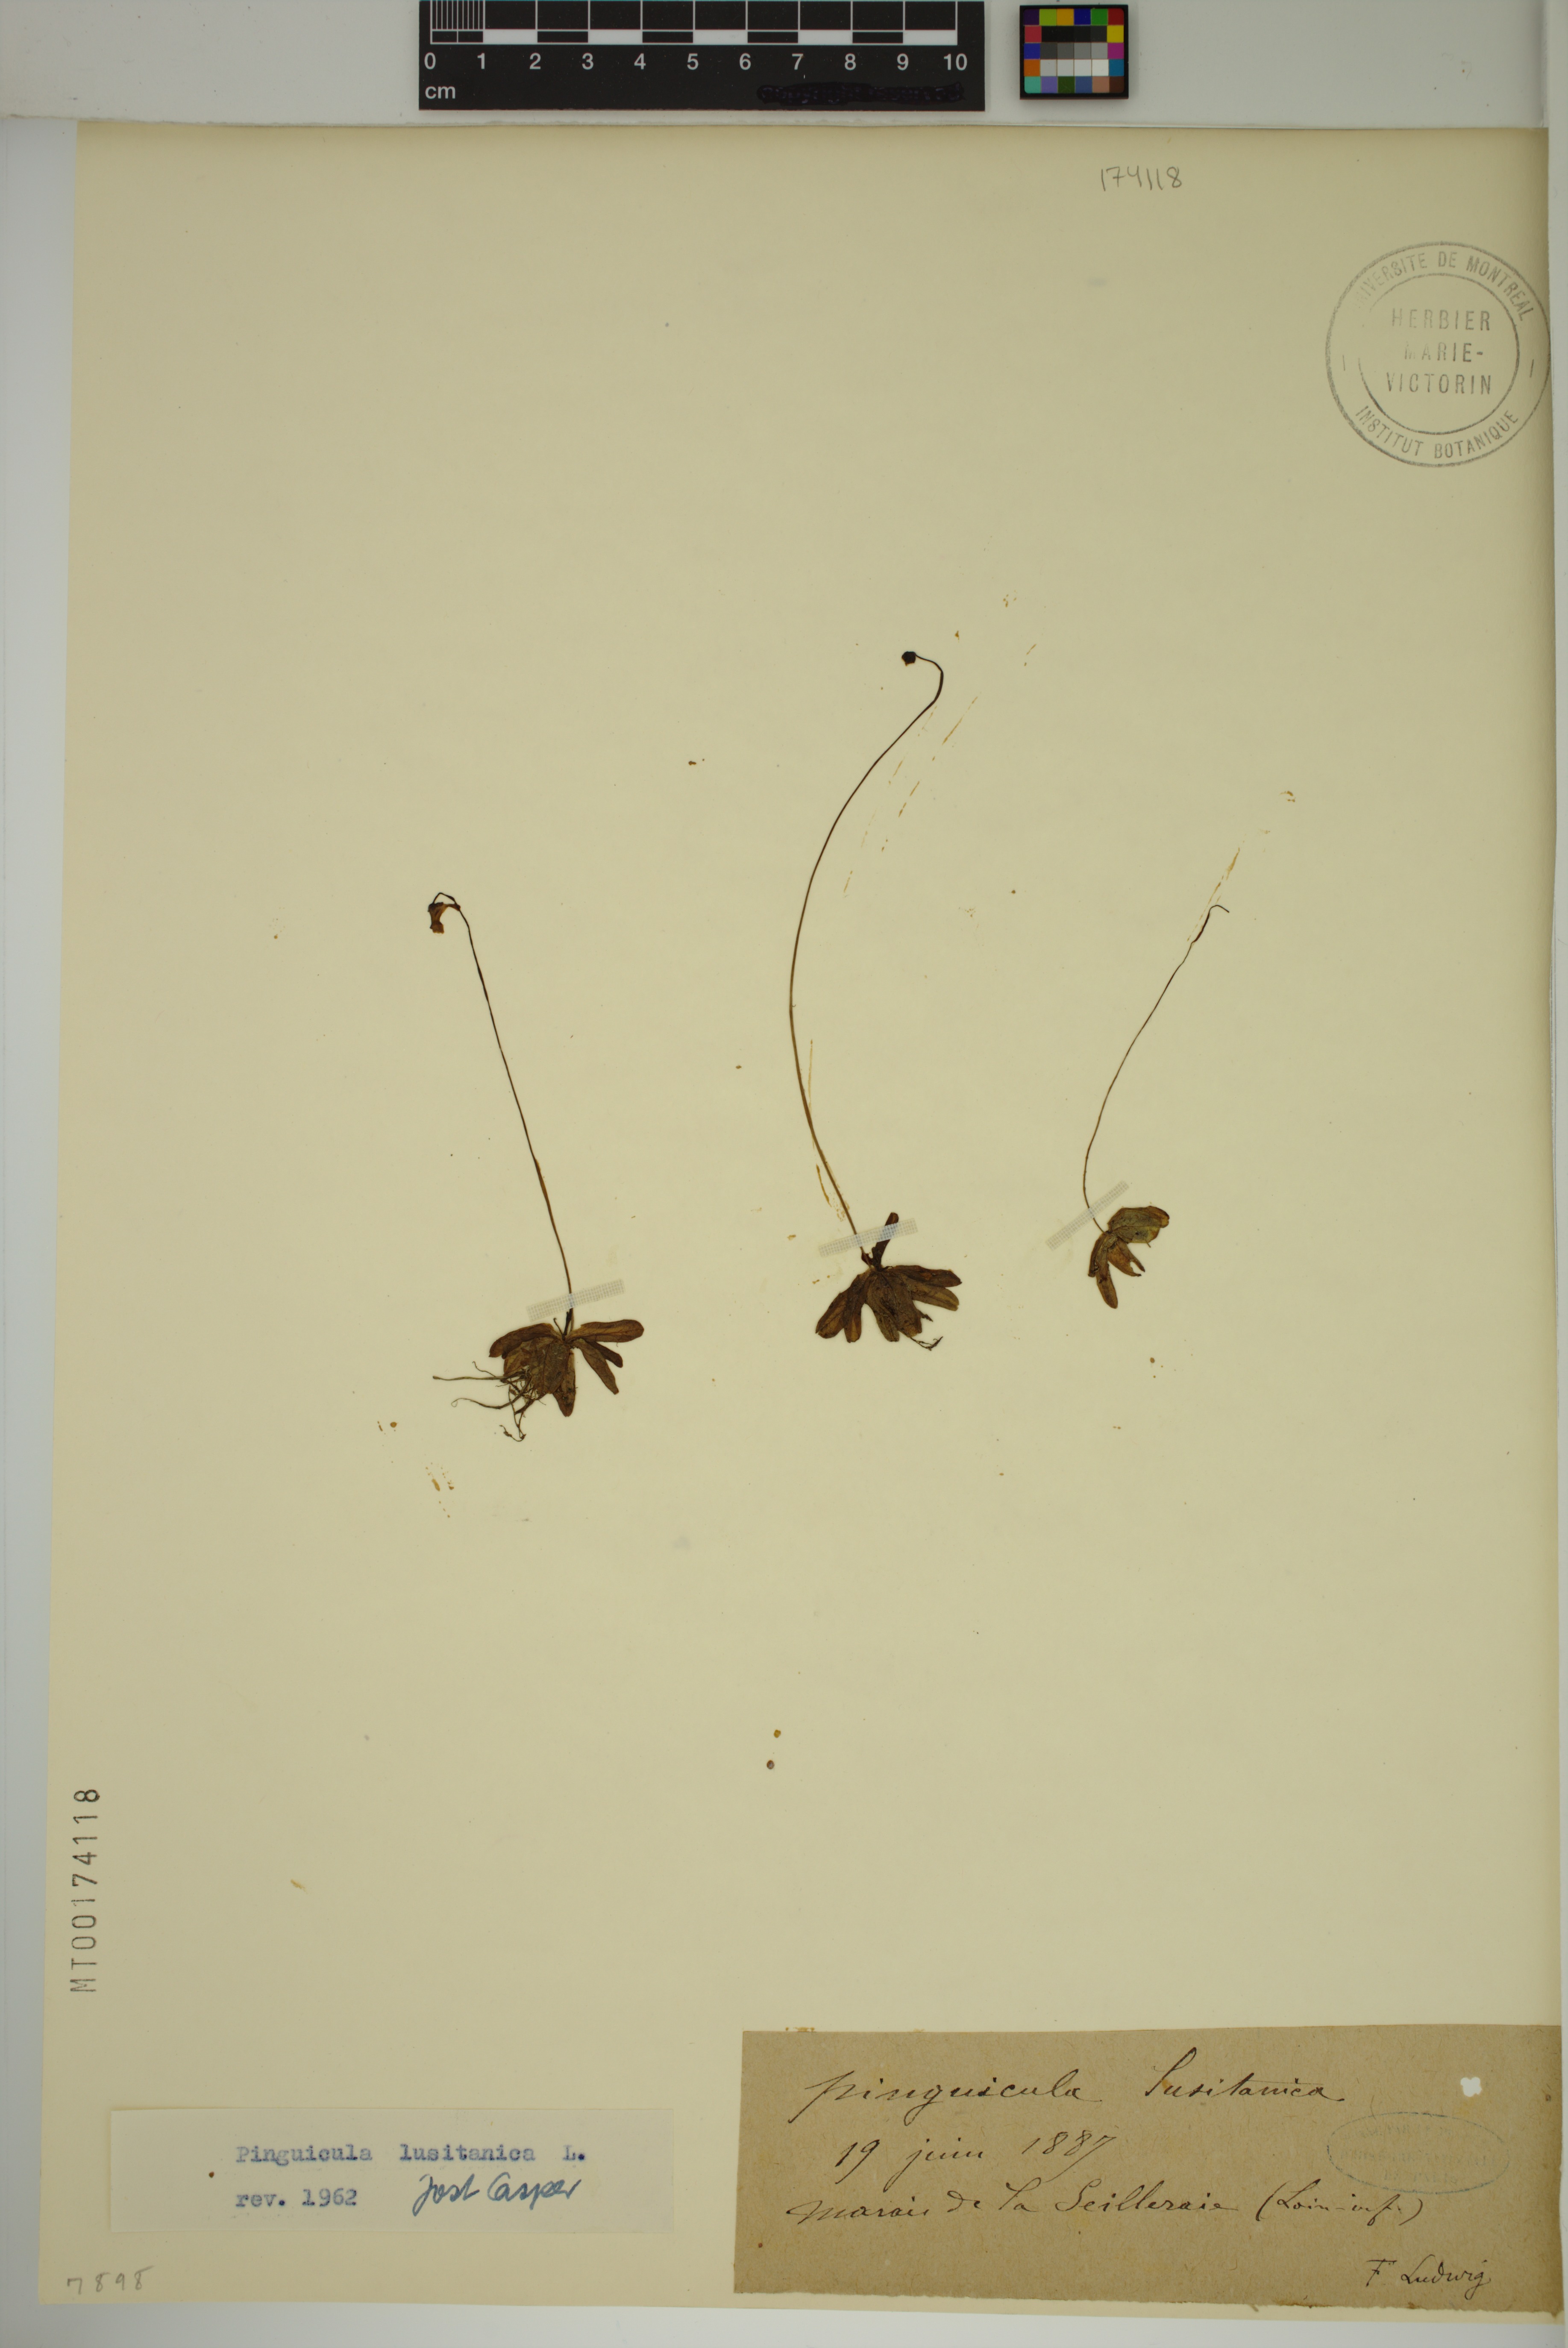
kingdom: Plantae
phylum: Tracheophyta
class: Magnoliopsida
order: Lamiales
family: Lentibulariaceae
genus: Pinguicula
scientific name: Pinguicula lusitanica
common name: Pale butterwort
